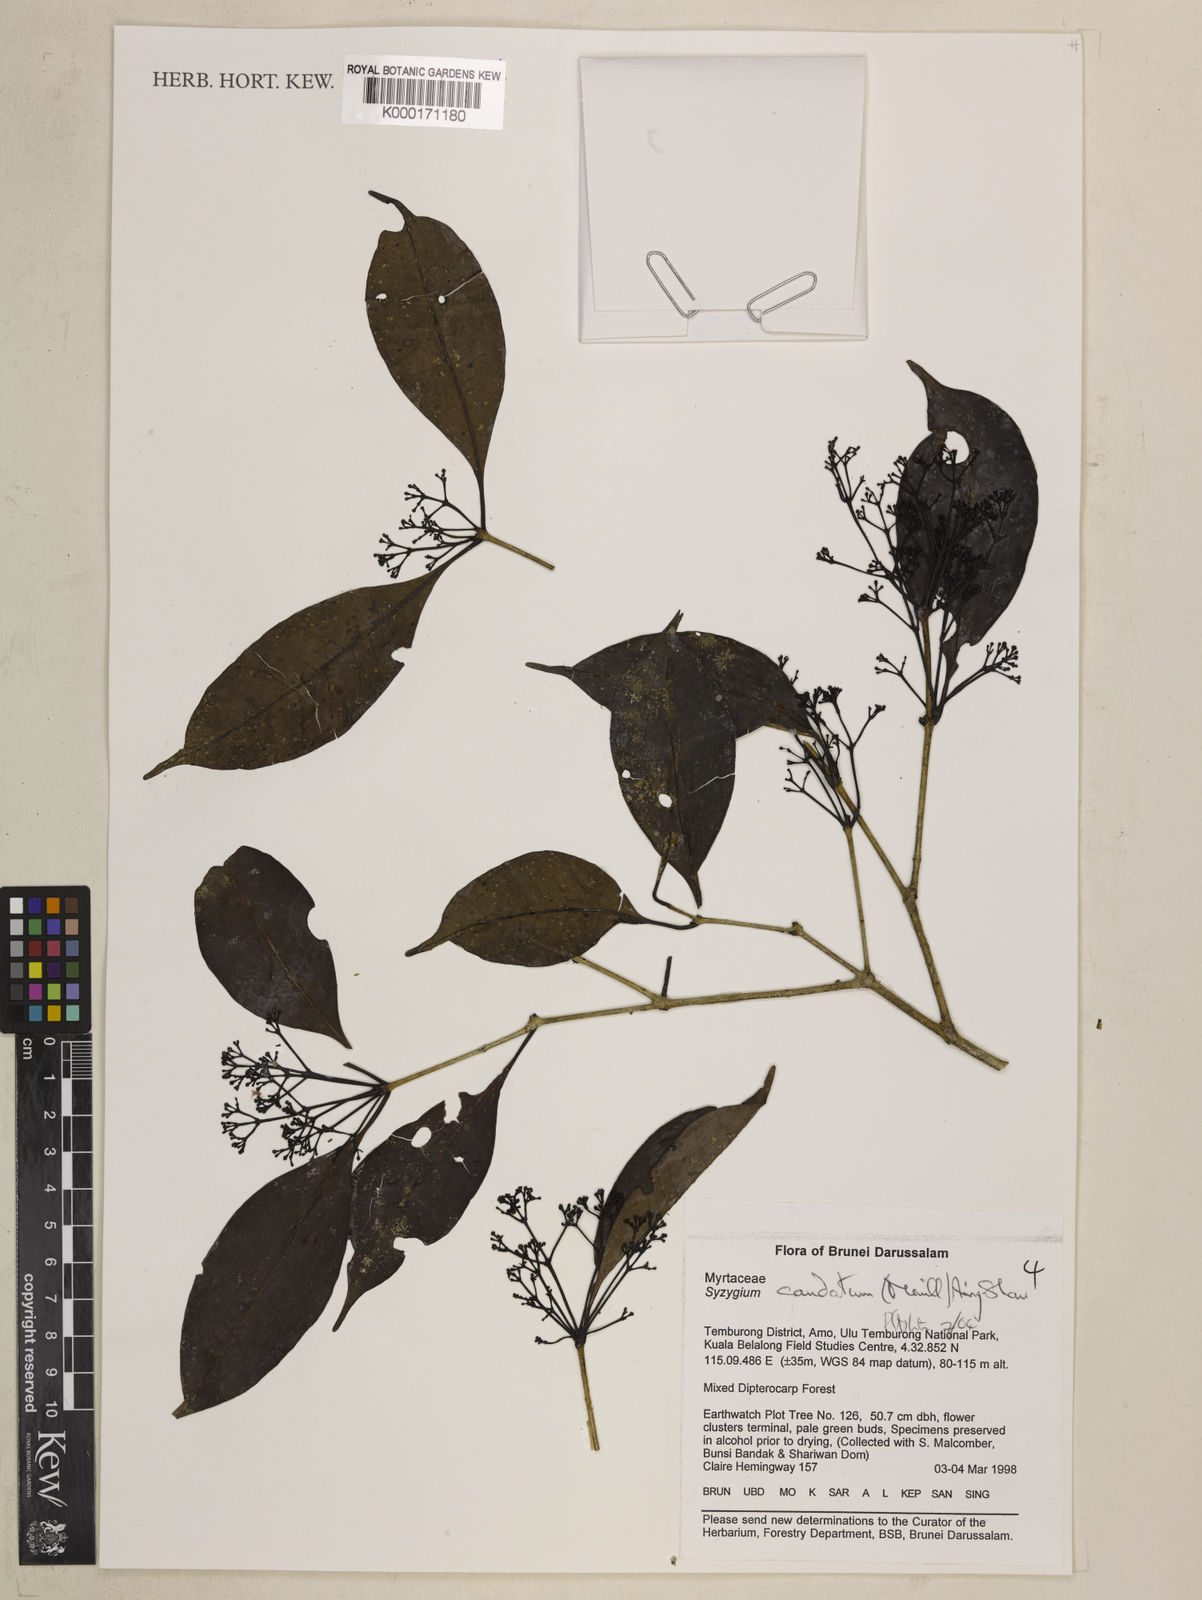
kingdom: Plantae
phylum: Tracheophyta
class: Magnoliopsida
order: Myrtales
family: Myrtaceae
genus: Syzygium
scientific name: Syzygium caudatum
